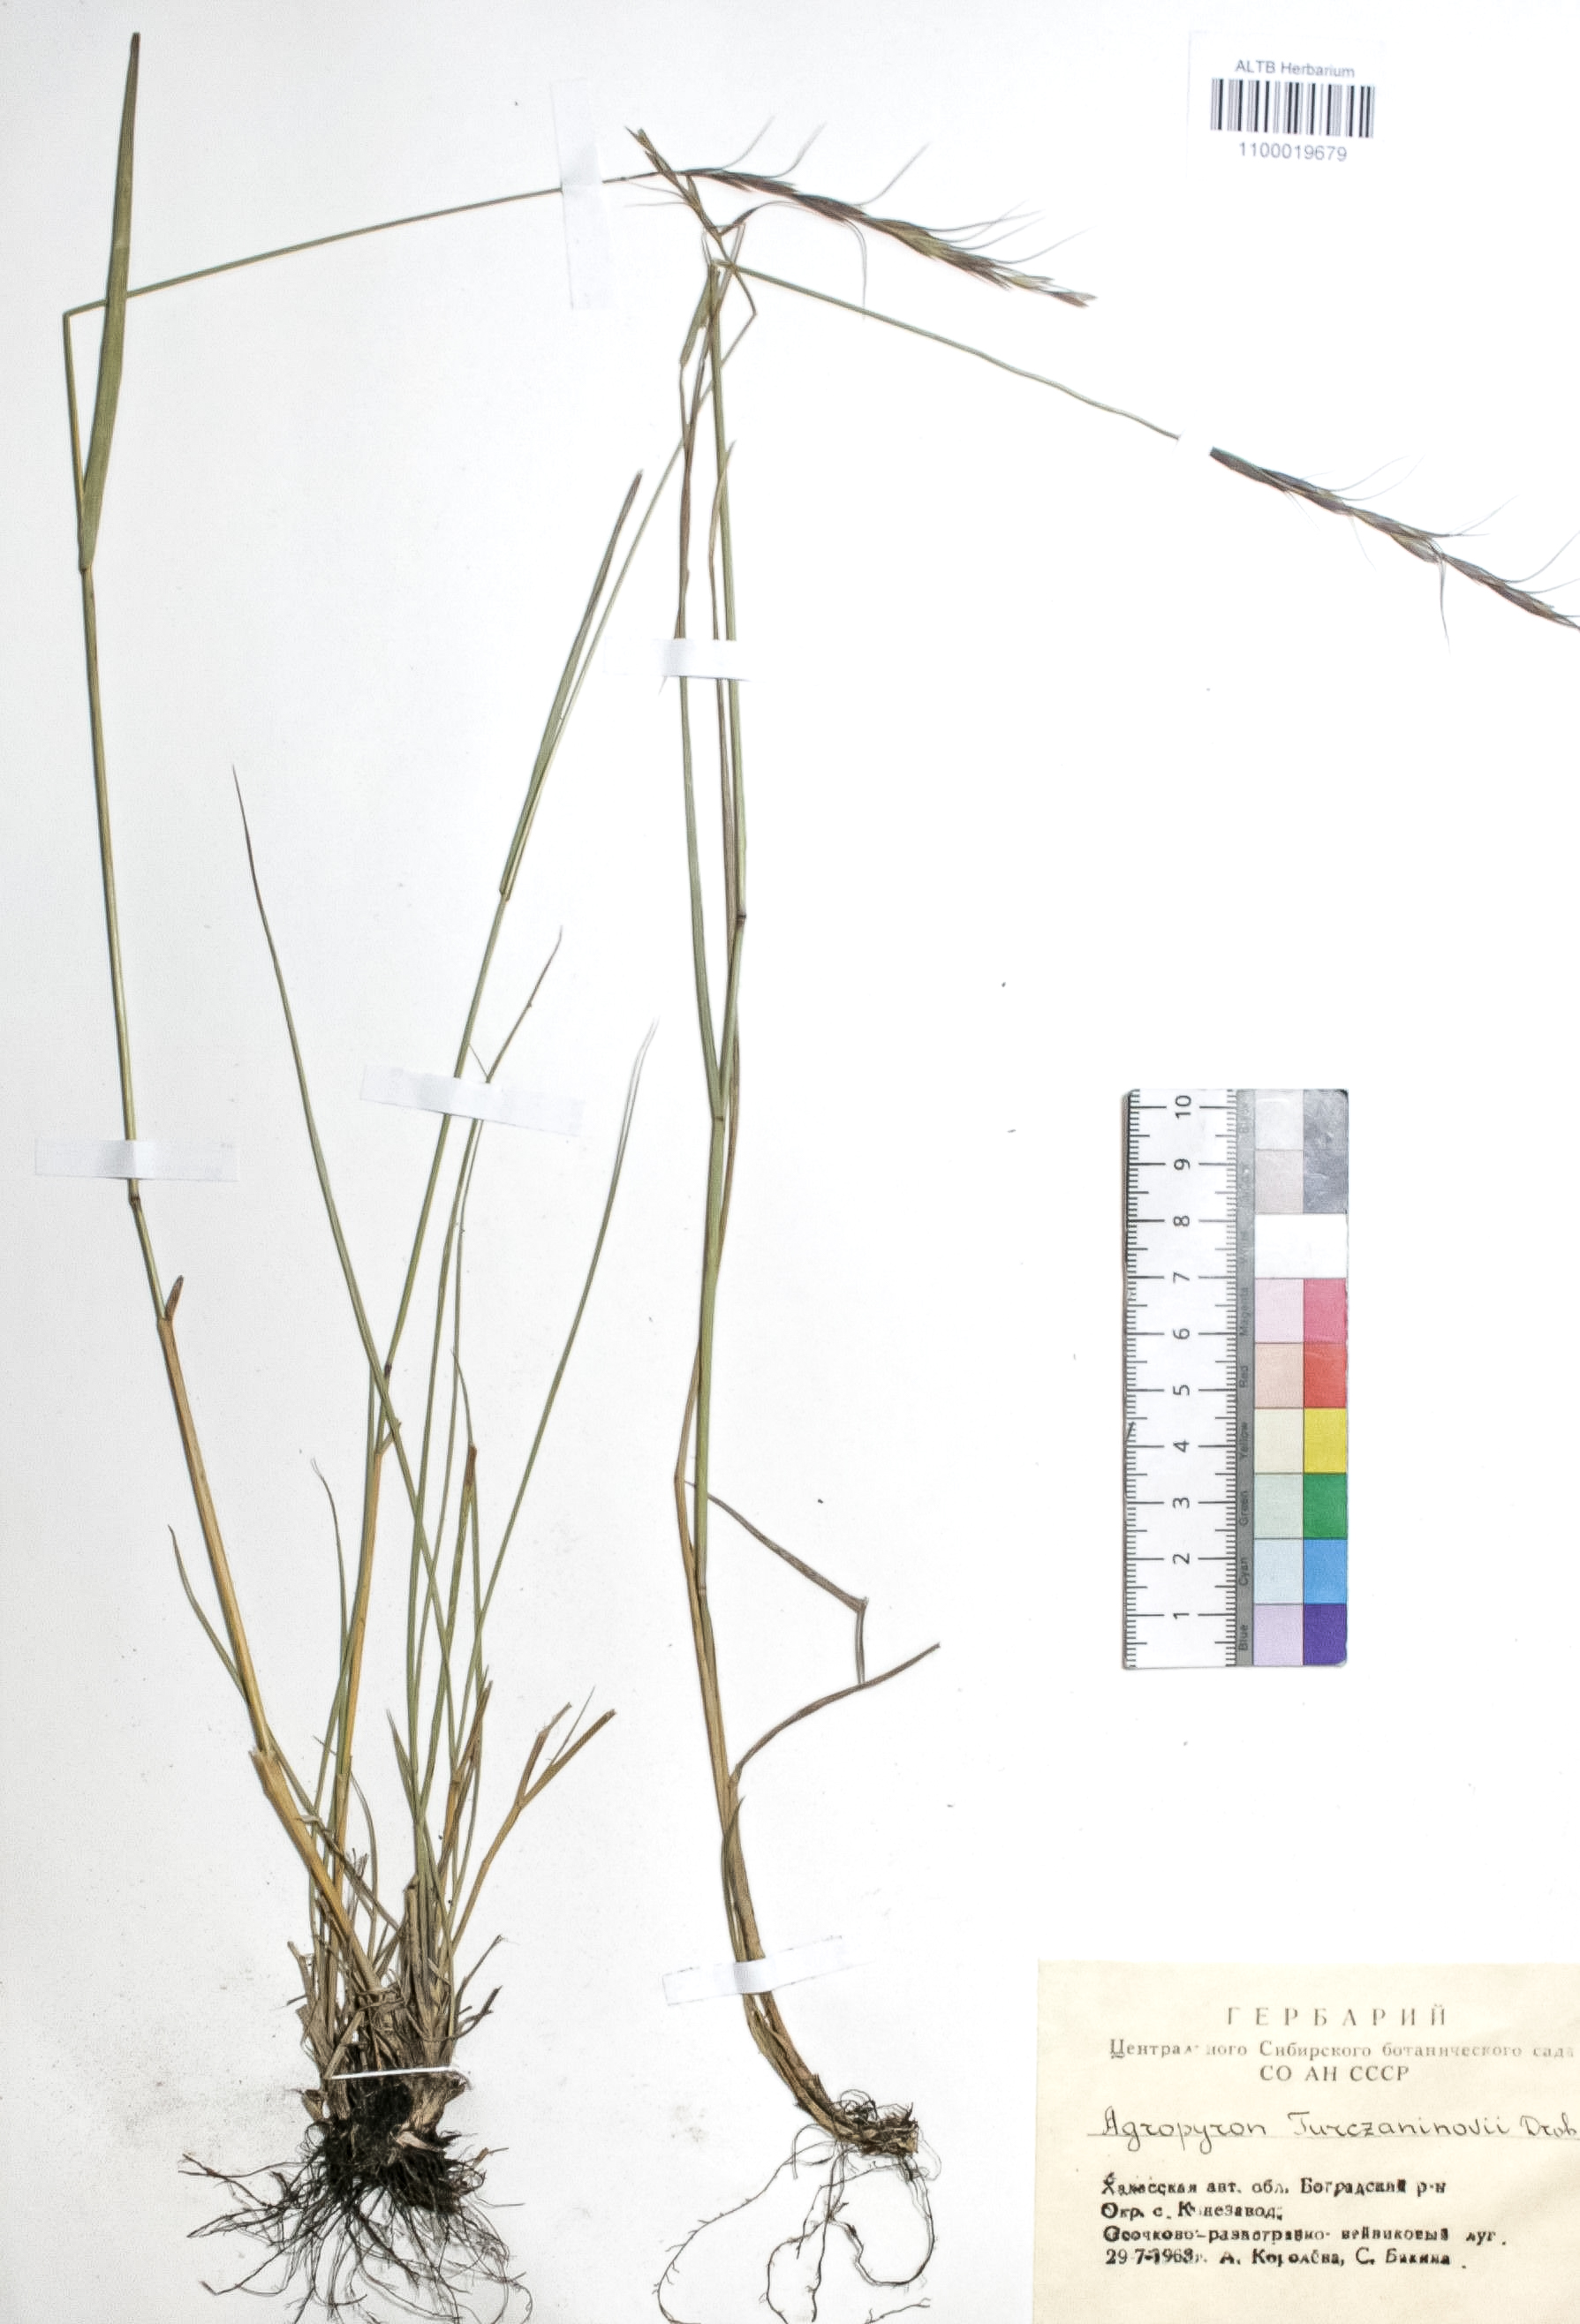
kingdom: Plantae
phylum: Tracheophyta
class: Liliopsida
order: Poales
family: Poaceae
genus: Pseudoroegneria
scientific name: Pseudoroegneria reflexiaristata
